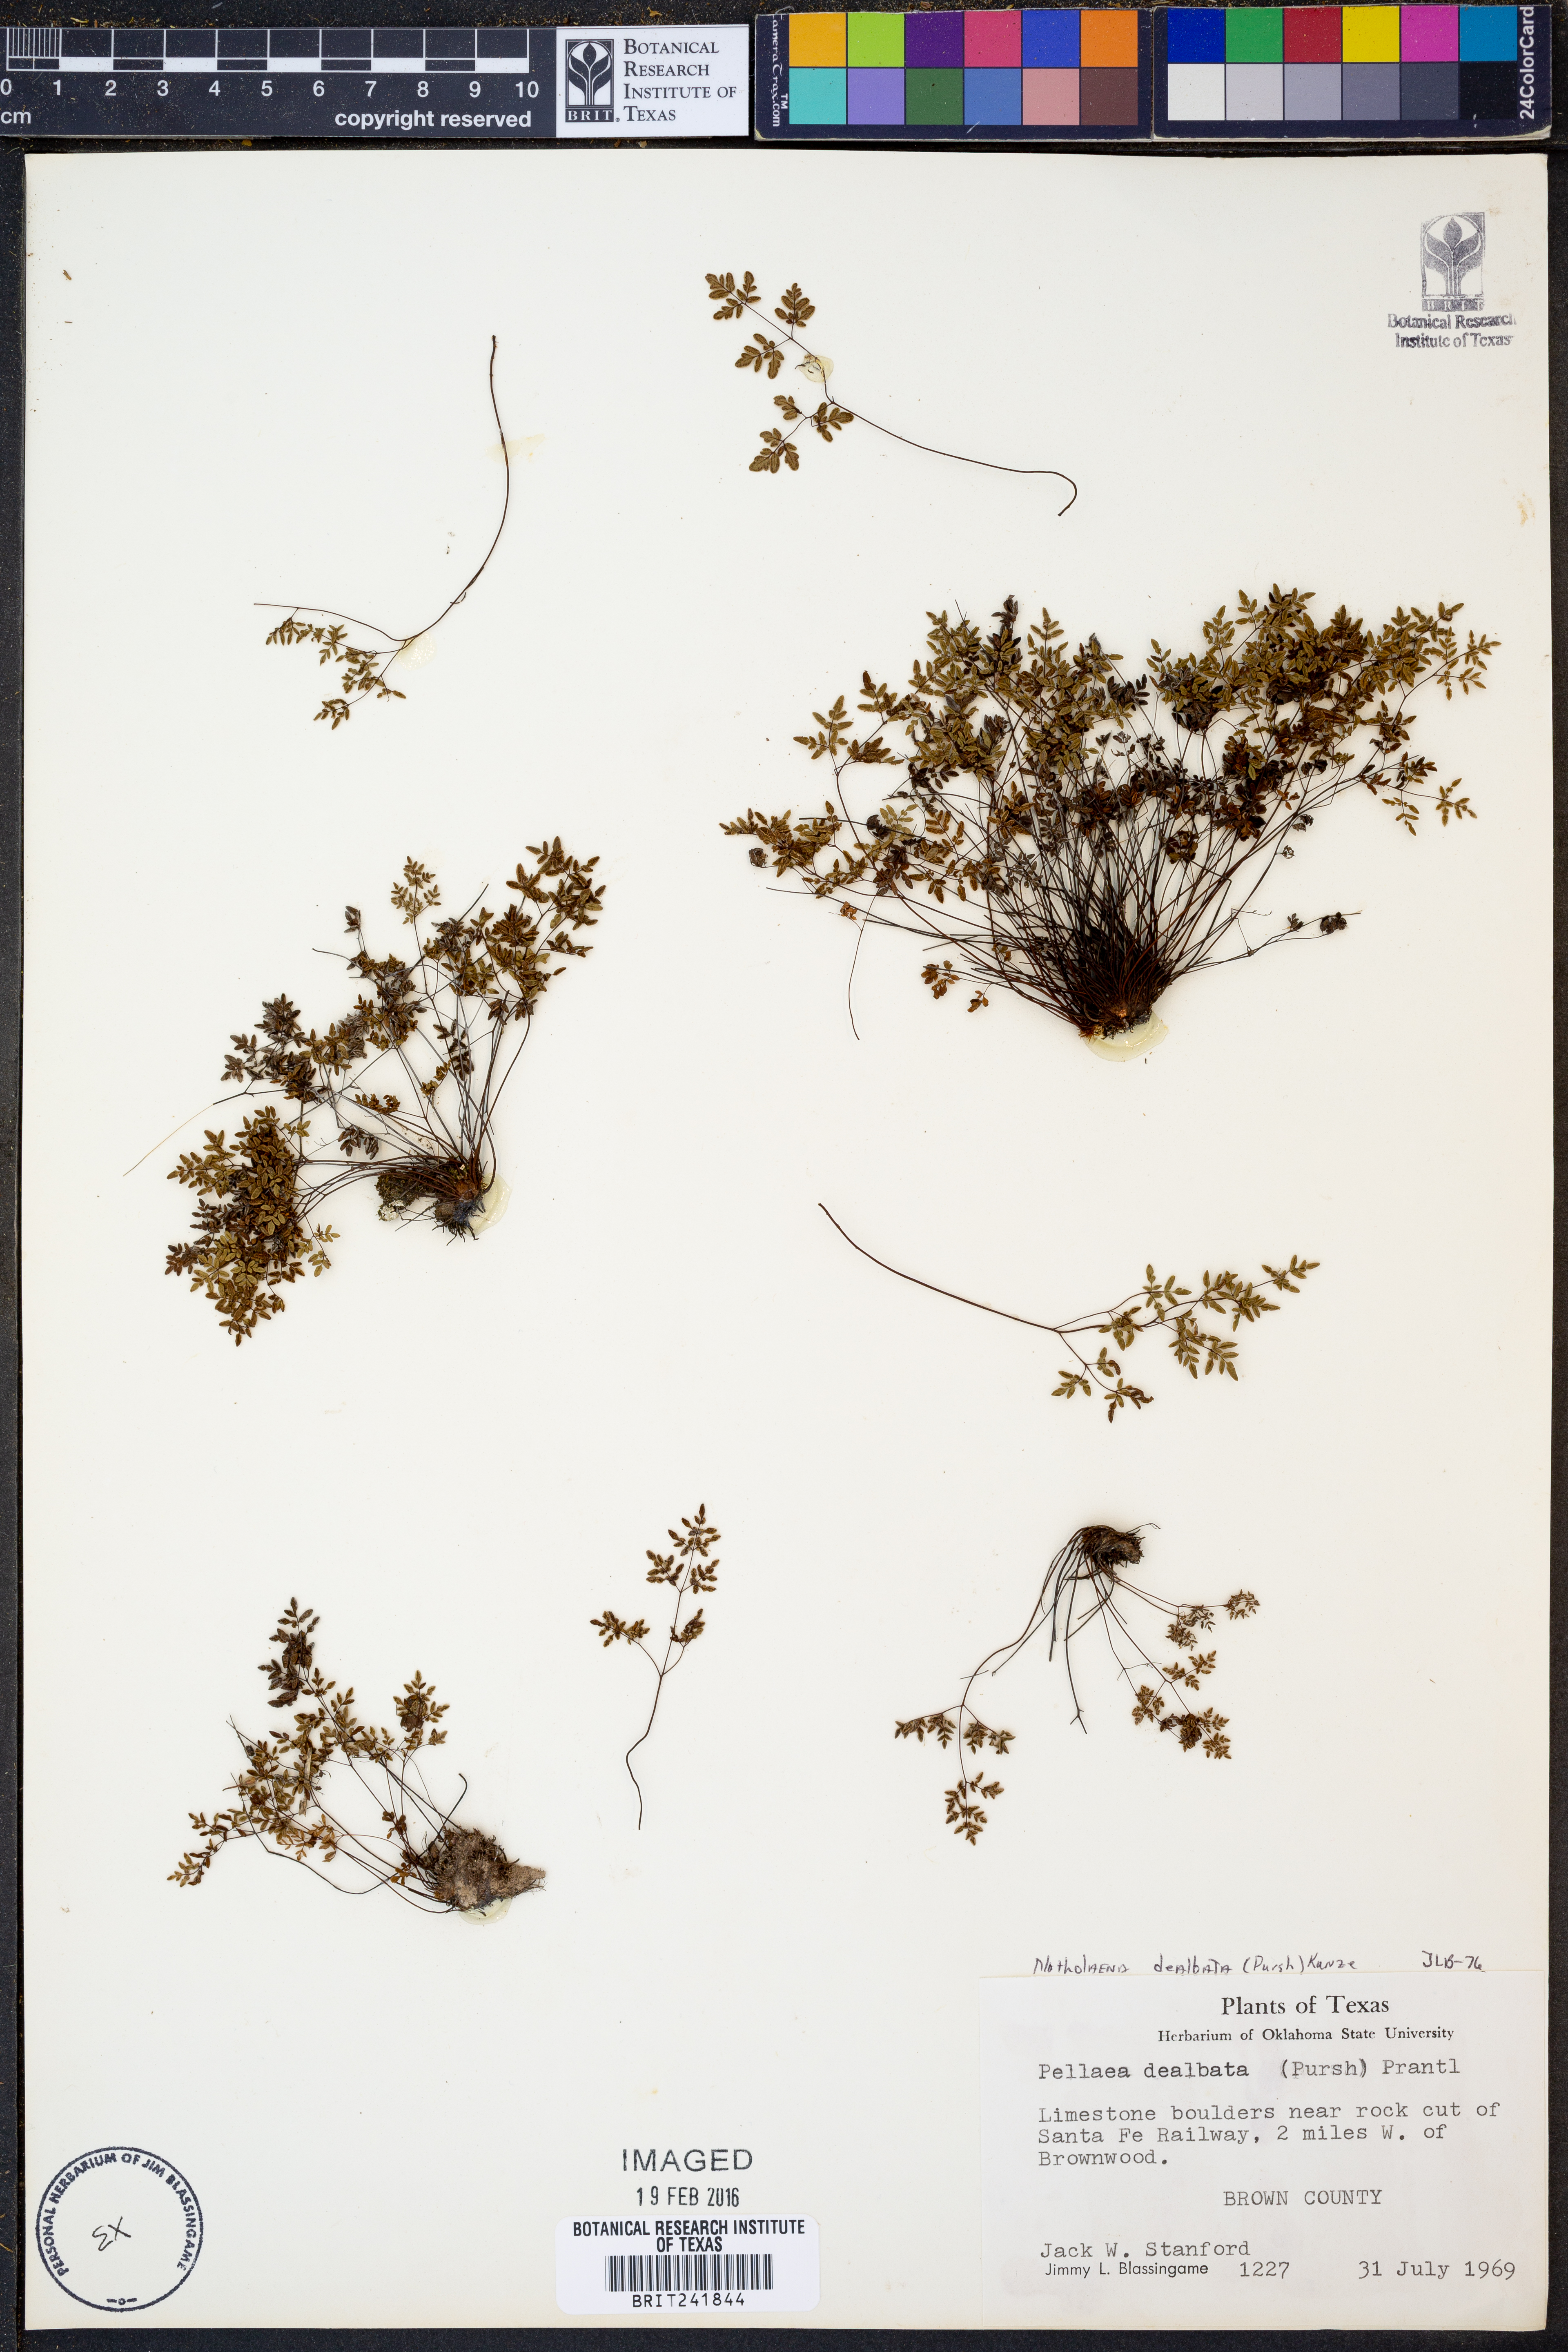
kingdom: Plantae
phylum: Tracheophyta
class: Polypodiopsida
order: Polypodiales
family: Pteridaceae
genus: Argyrochosma
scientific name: Argyrochosma dealbata
